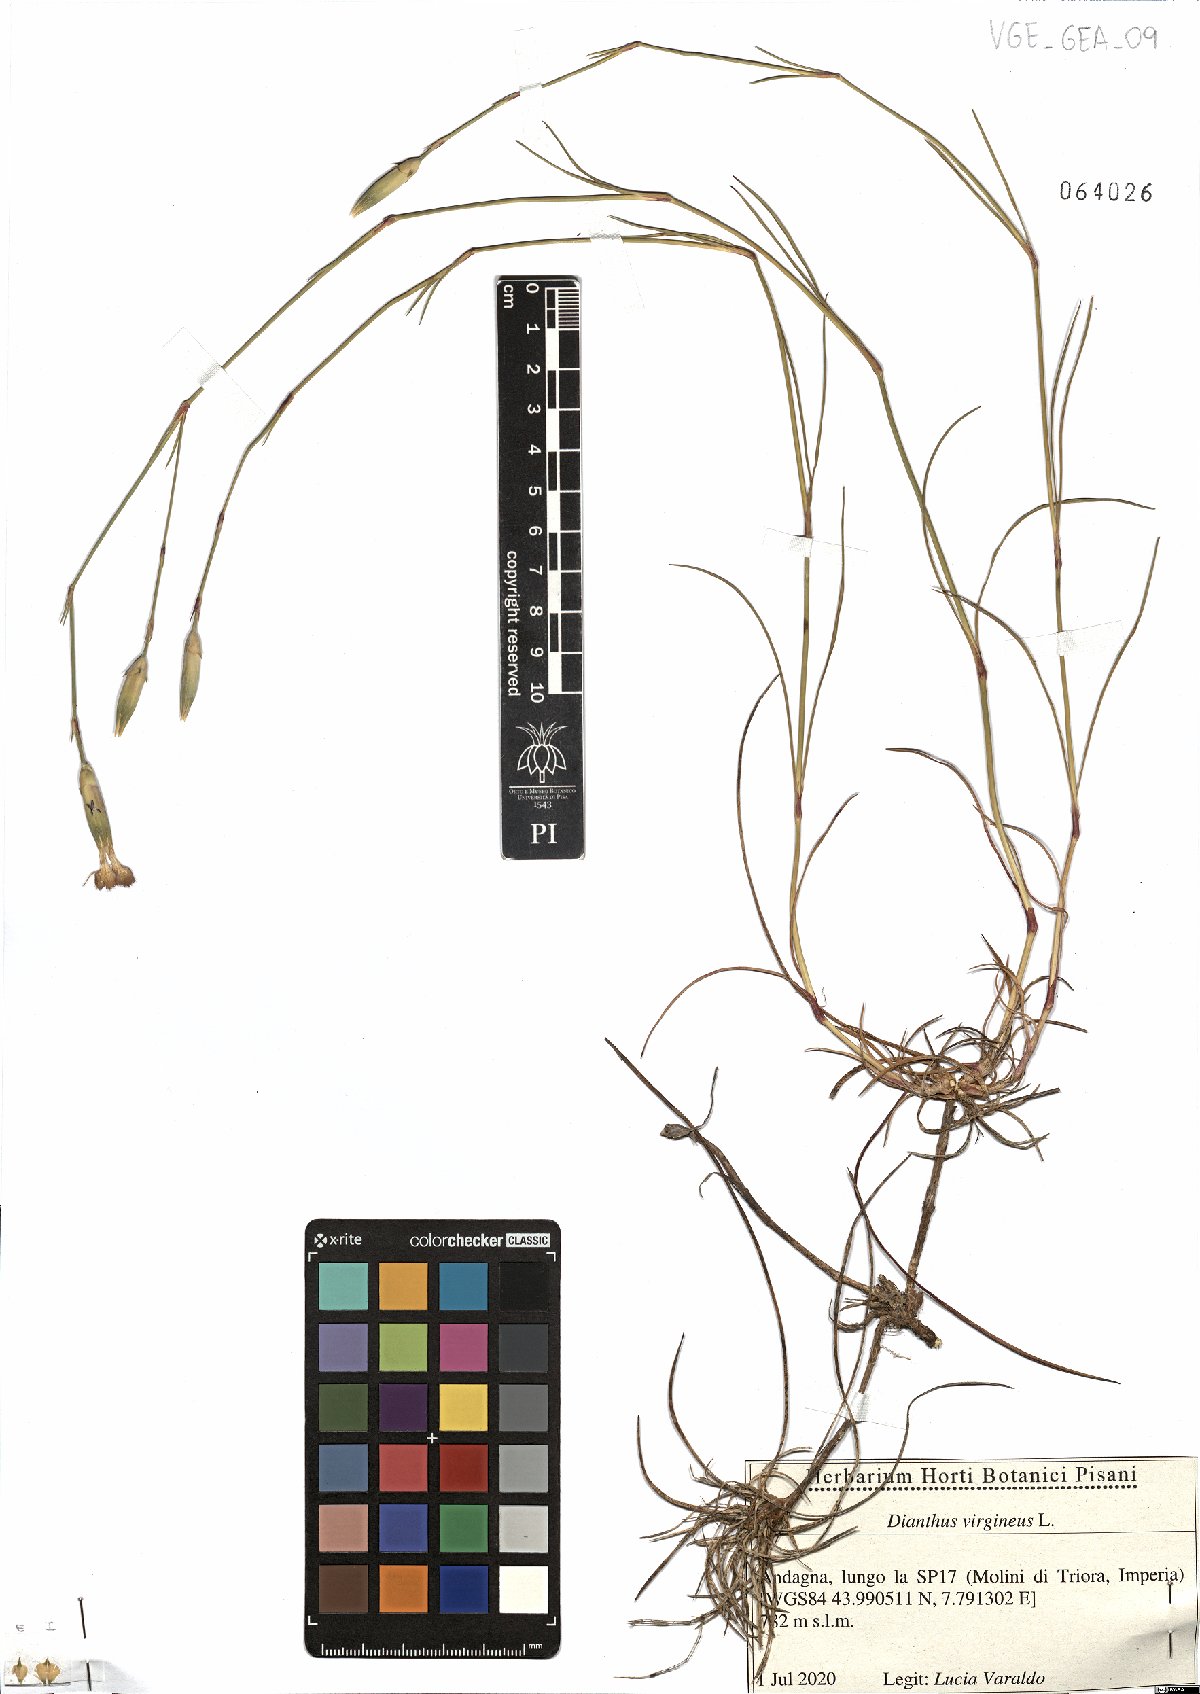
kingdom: Plantae
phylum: Tracheophyta
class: Magnoliopsida
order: Caryophyllales
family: Caryophyllaceae
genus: Dianthus
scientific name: Dianthus virgineus
